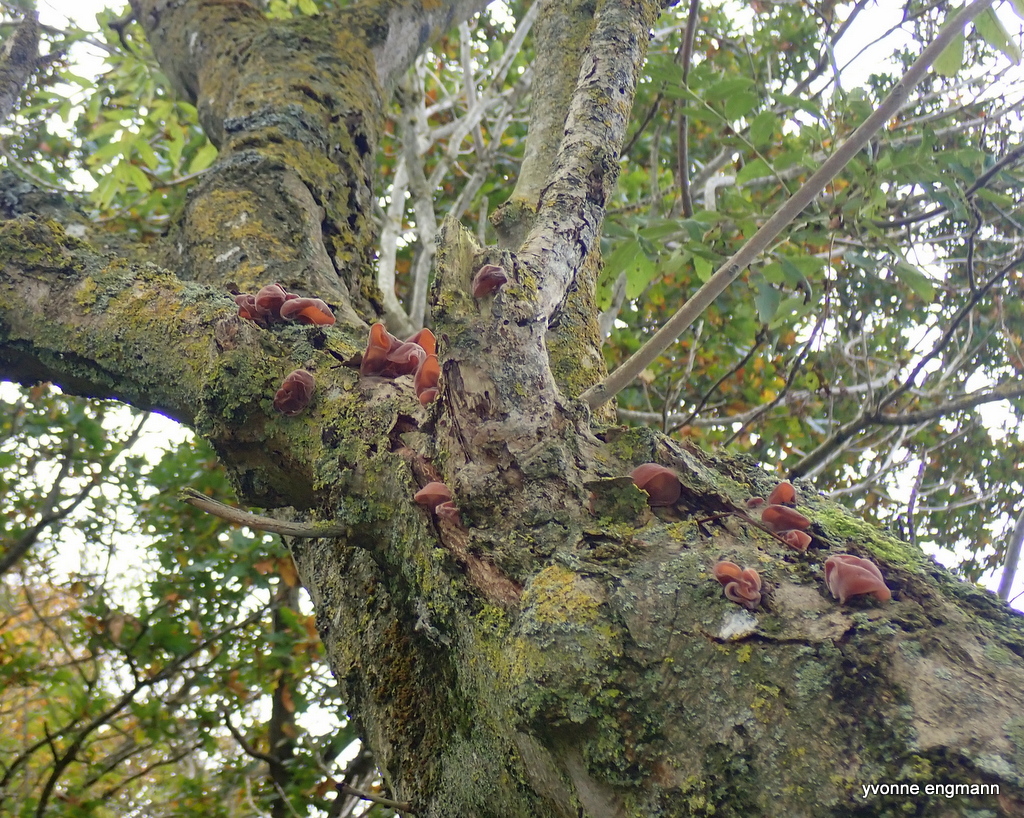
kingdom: Fungi
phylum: Basidiomycota
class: Agaricomycetes
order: Auriculariales
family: Auriculariaceae
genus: Auricularia
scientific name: Auricularia auricula-judae
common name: almindelig judasøre
